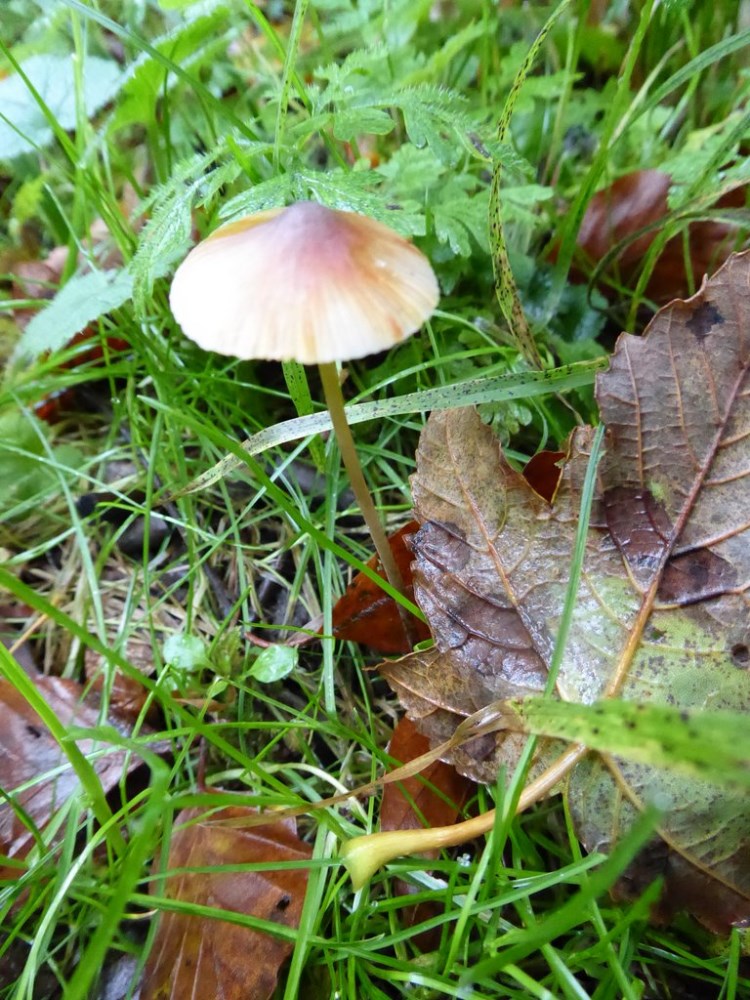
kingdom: Fungi
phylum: Basidiomycota
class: Agaricomycetes
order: Agaricales
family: Mycenaceae
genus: Mycena
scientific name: Mycena crocata
